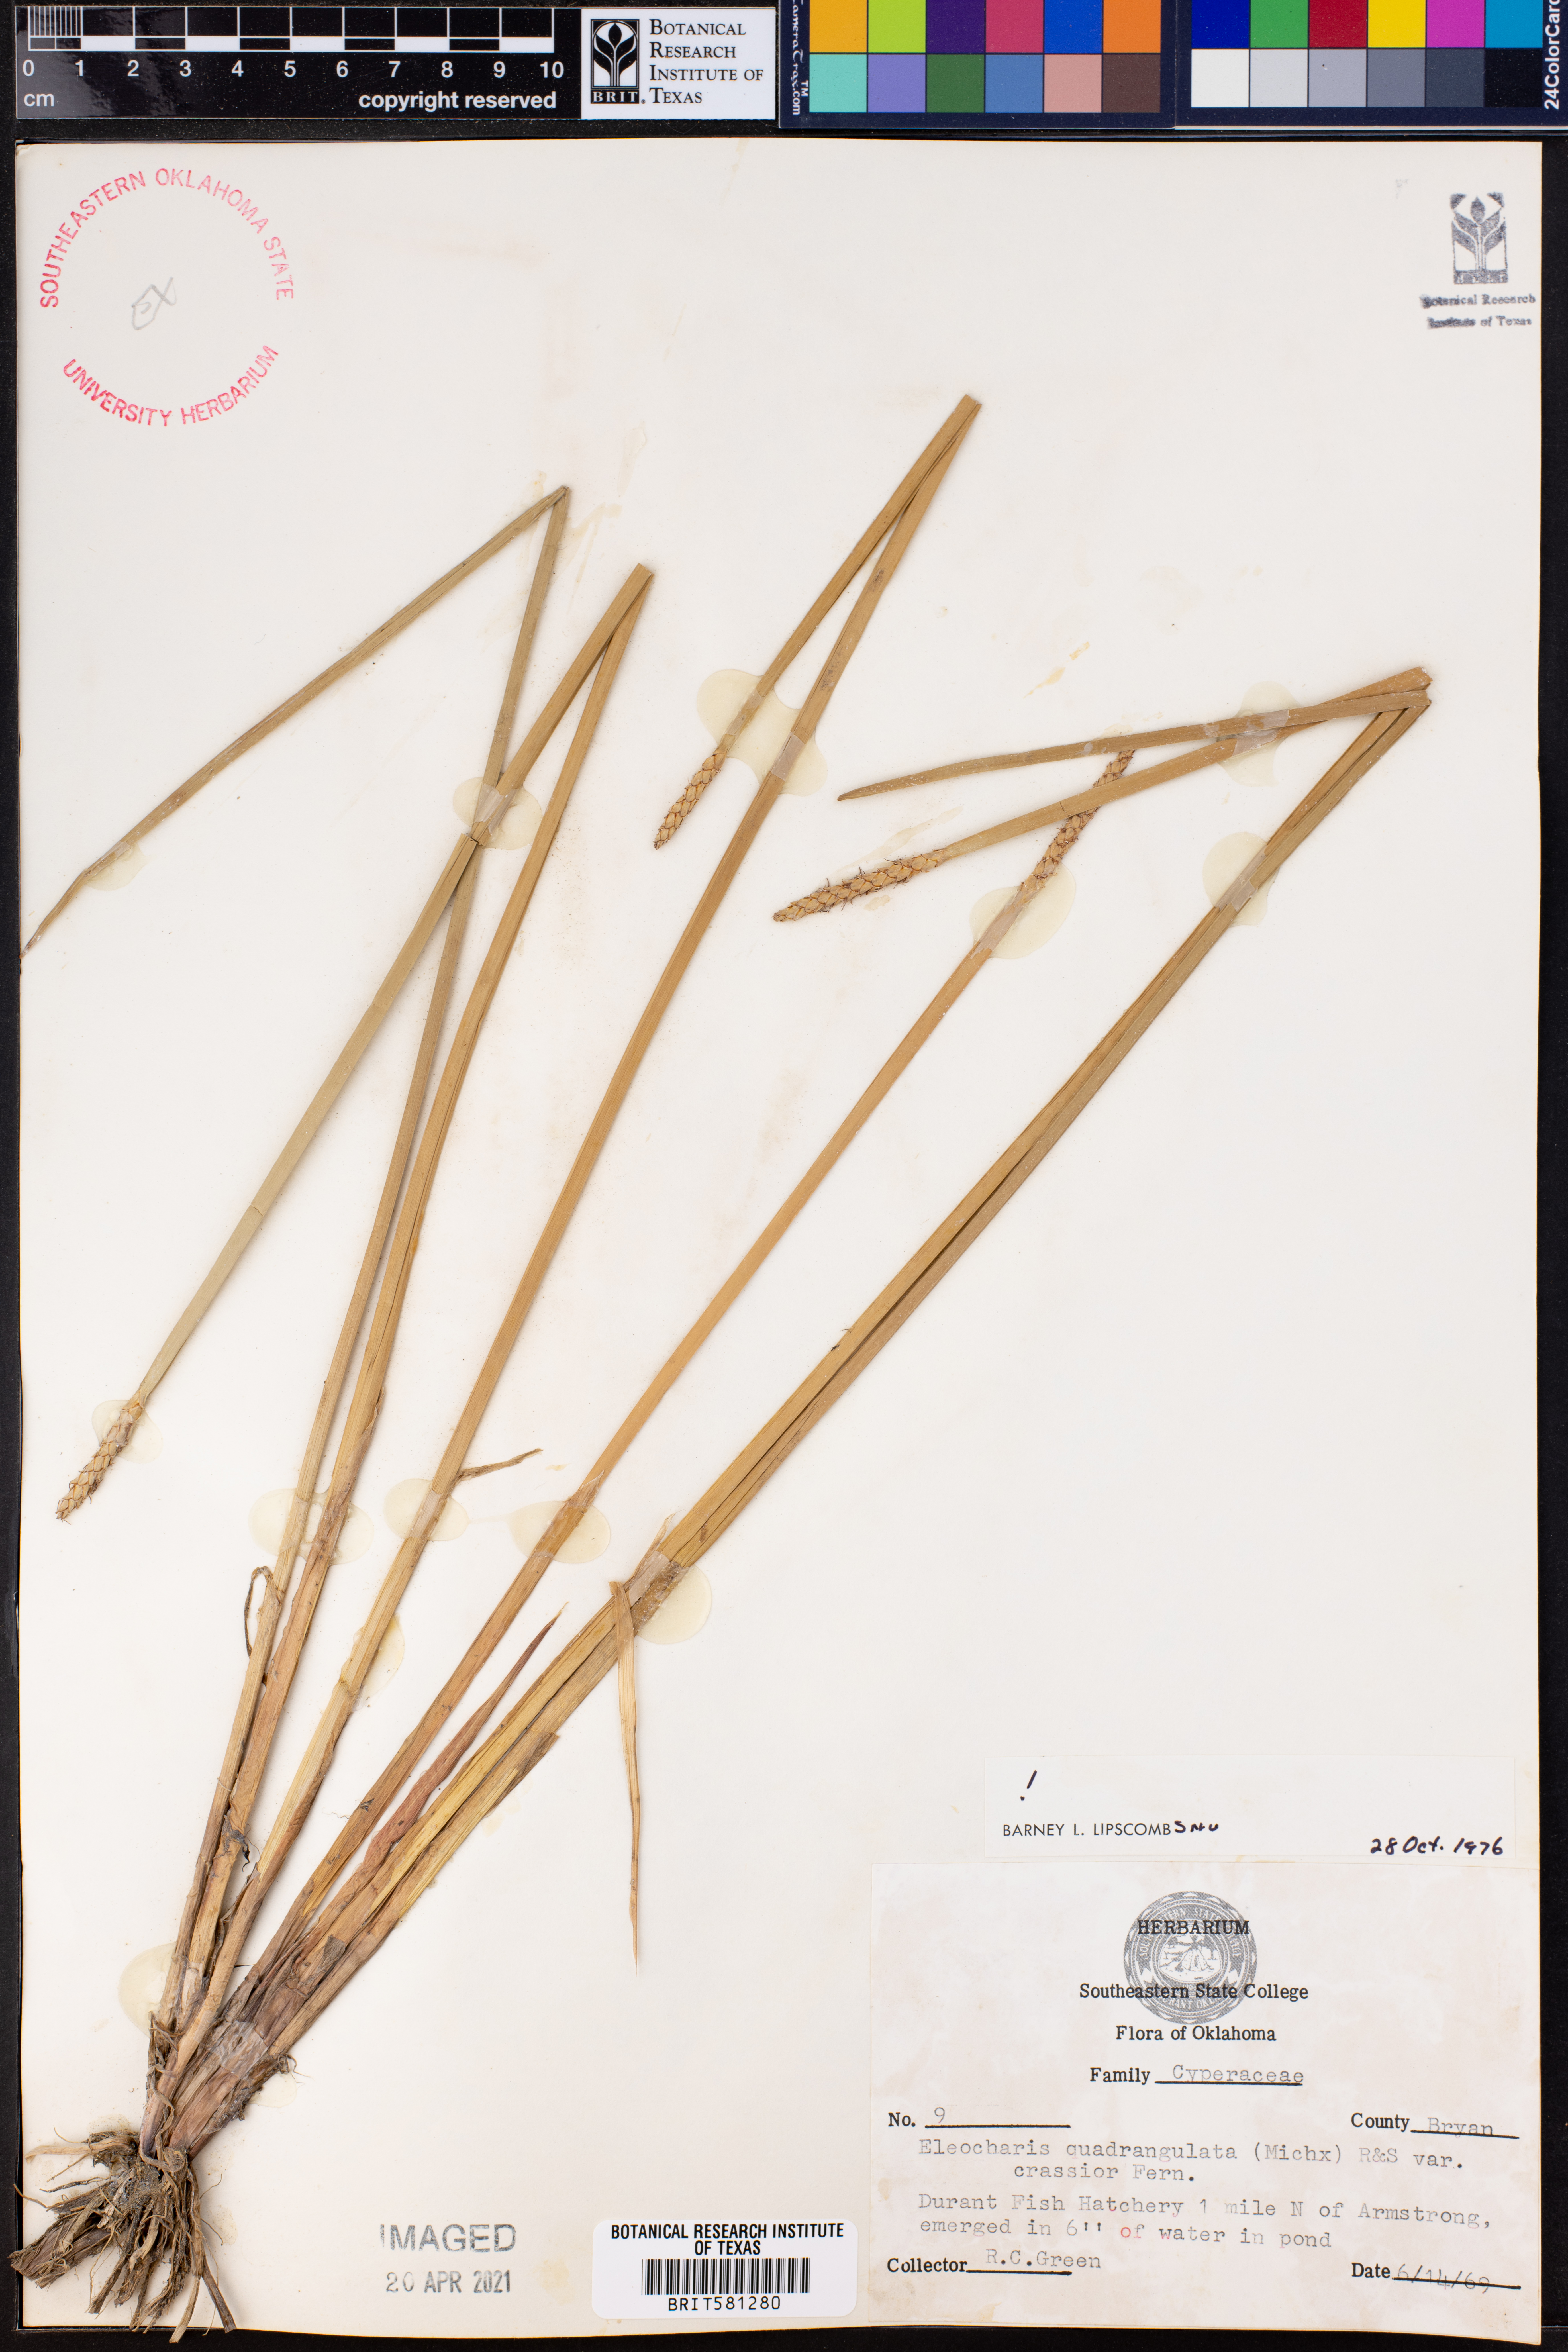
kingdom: Plantae
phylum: Tracheophyta
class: Liliopsida
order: Poales
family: Cyperaceae
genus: Eleocharis
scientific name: Eleocharis quadrangulata
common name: Square-stem spike-rush
